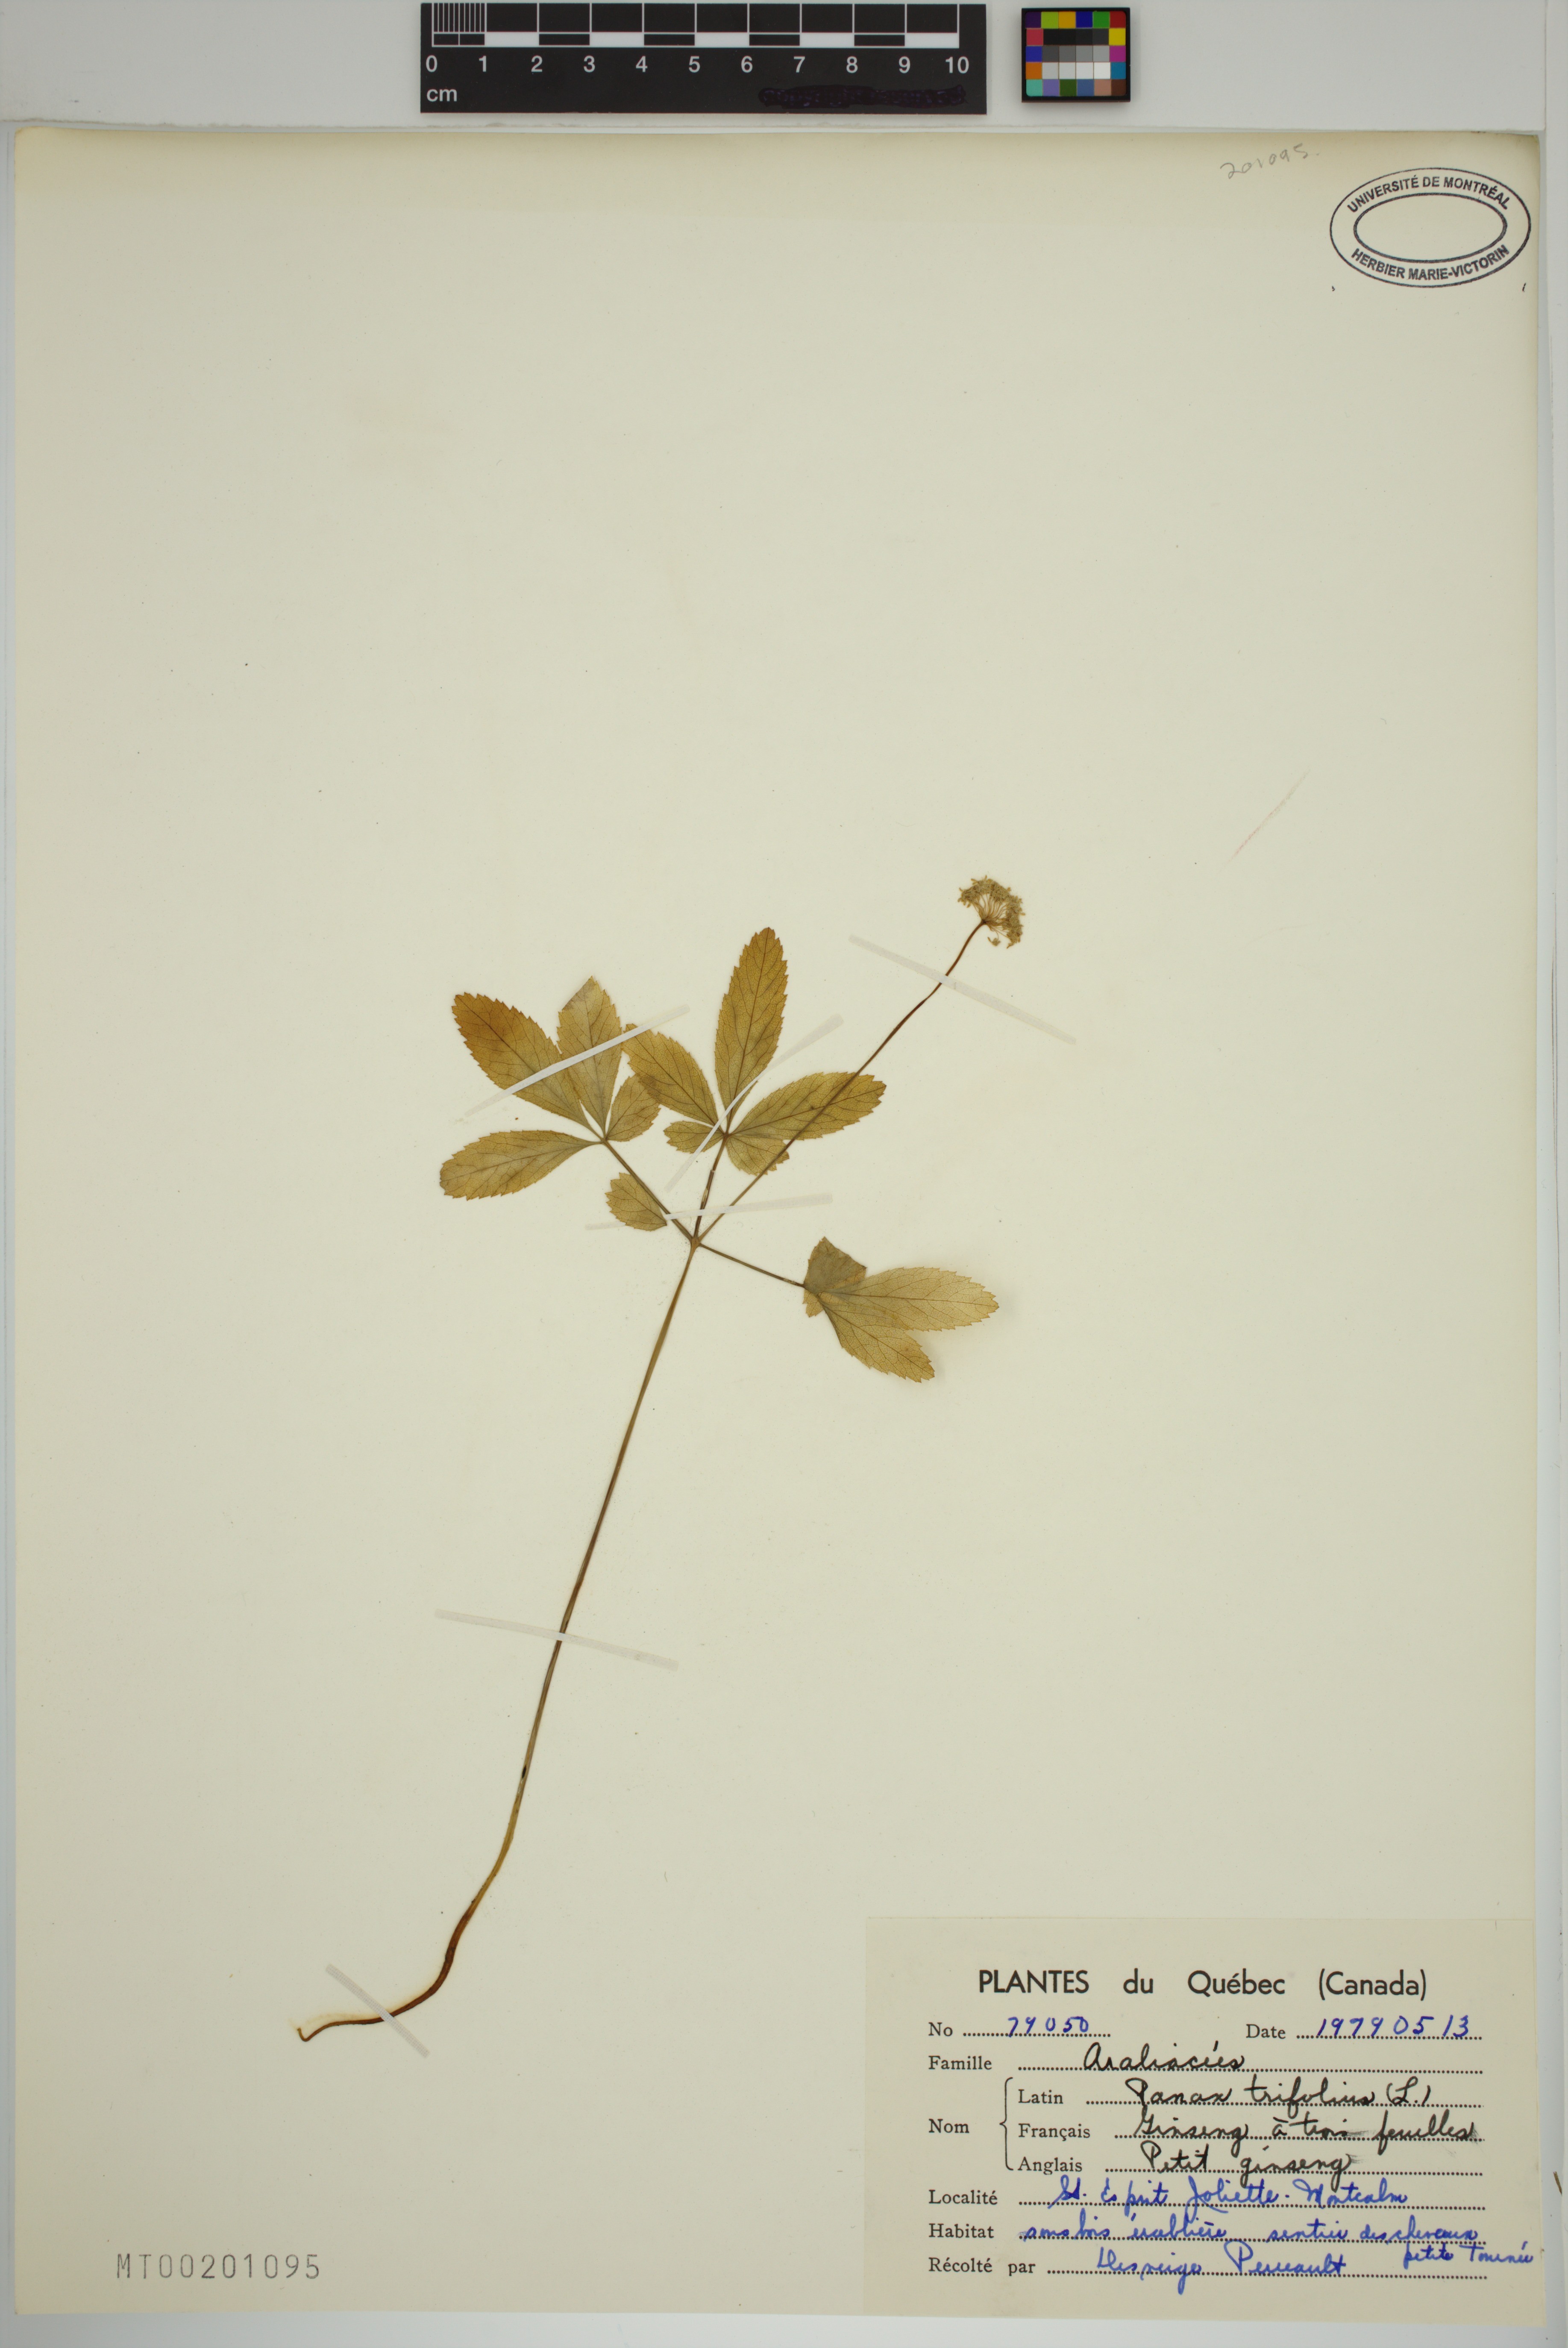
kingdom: Plantae
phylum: Tracheophyta
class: Magnoliopsida
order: Apiales
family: Araliaceae
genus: Panax
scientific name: Panax trifolius
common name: Dwarf ginseng
